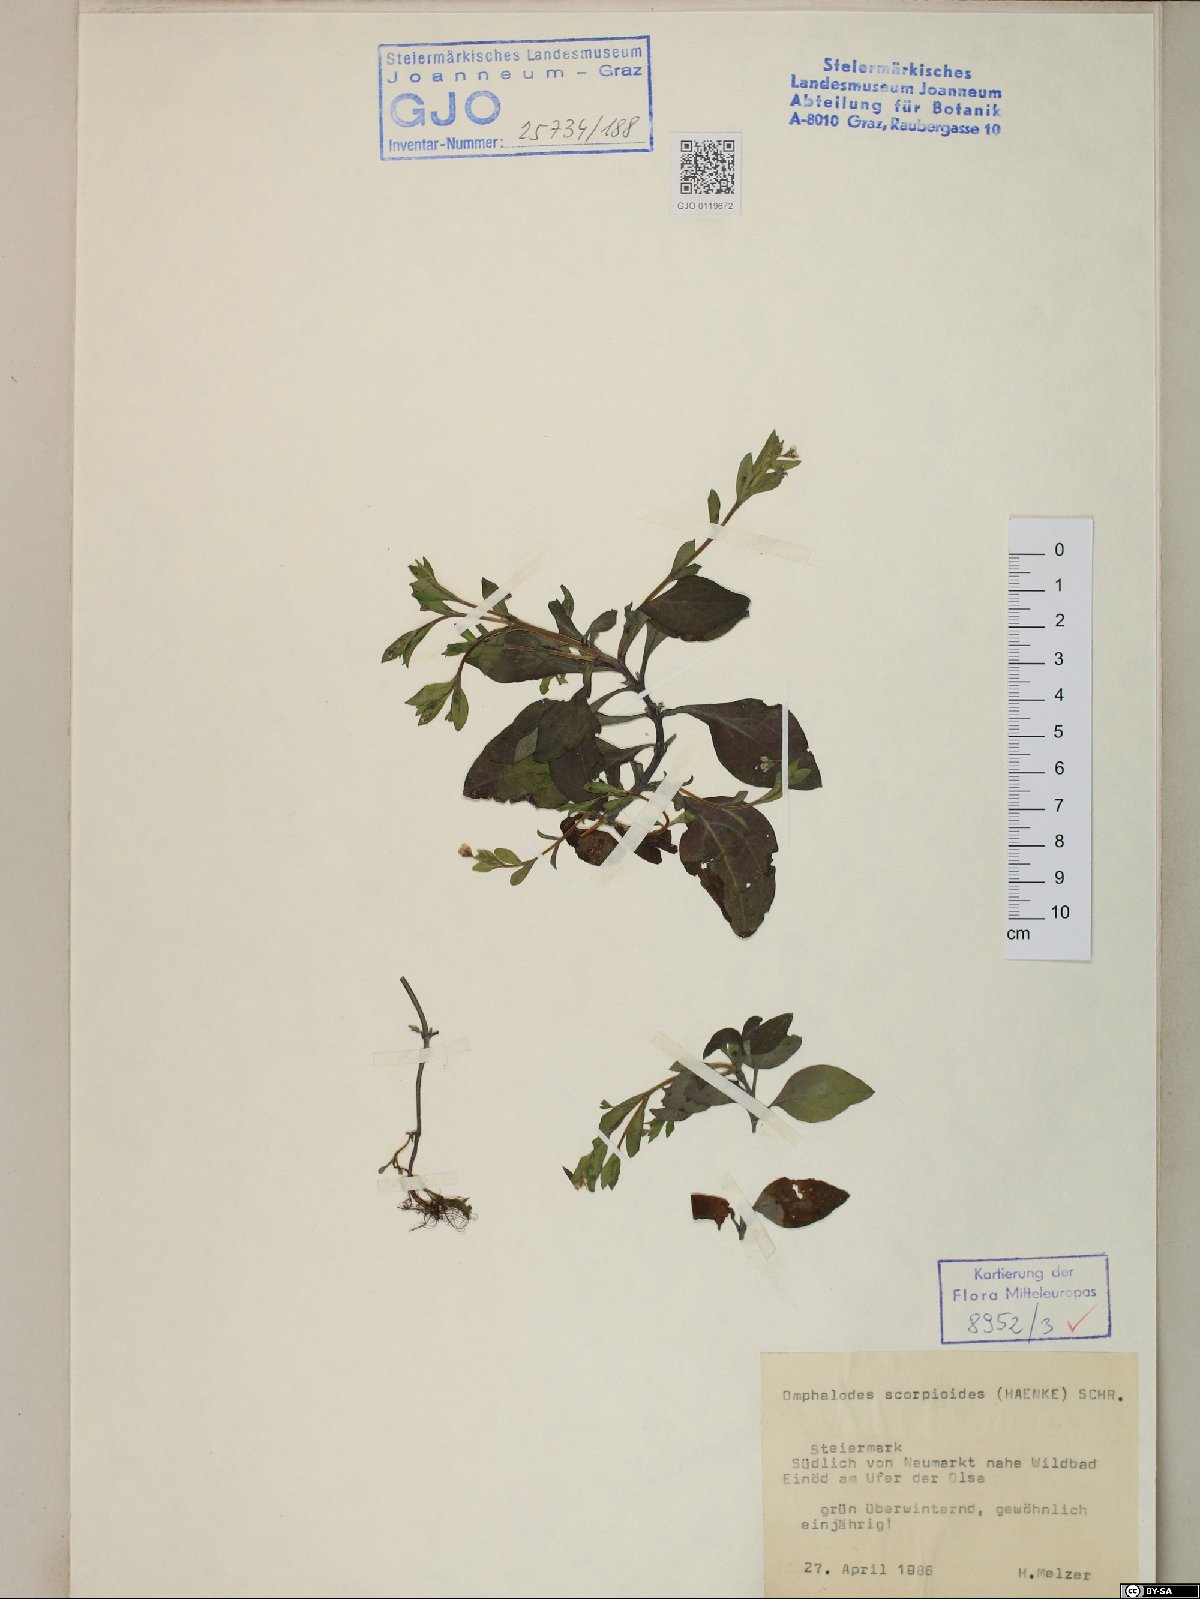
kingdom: Plantae
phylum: Tracheophyta
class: Magnoliopsida
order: Boraginales
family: Boraginaceae
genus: Memoremea
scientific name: Memoremea scorpioides
